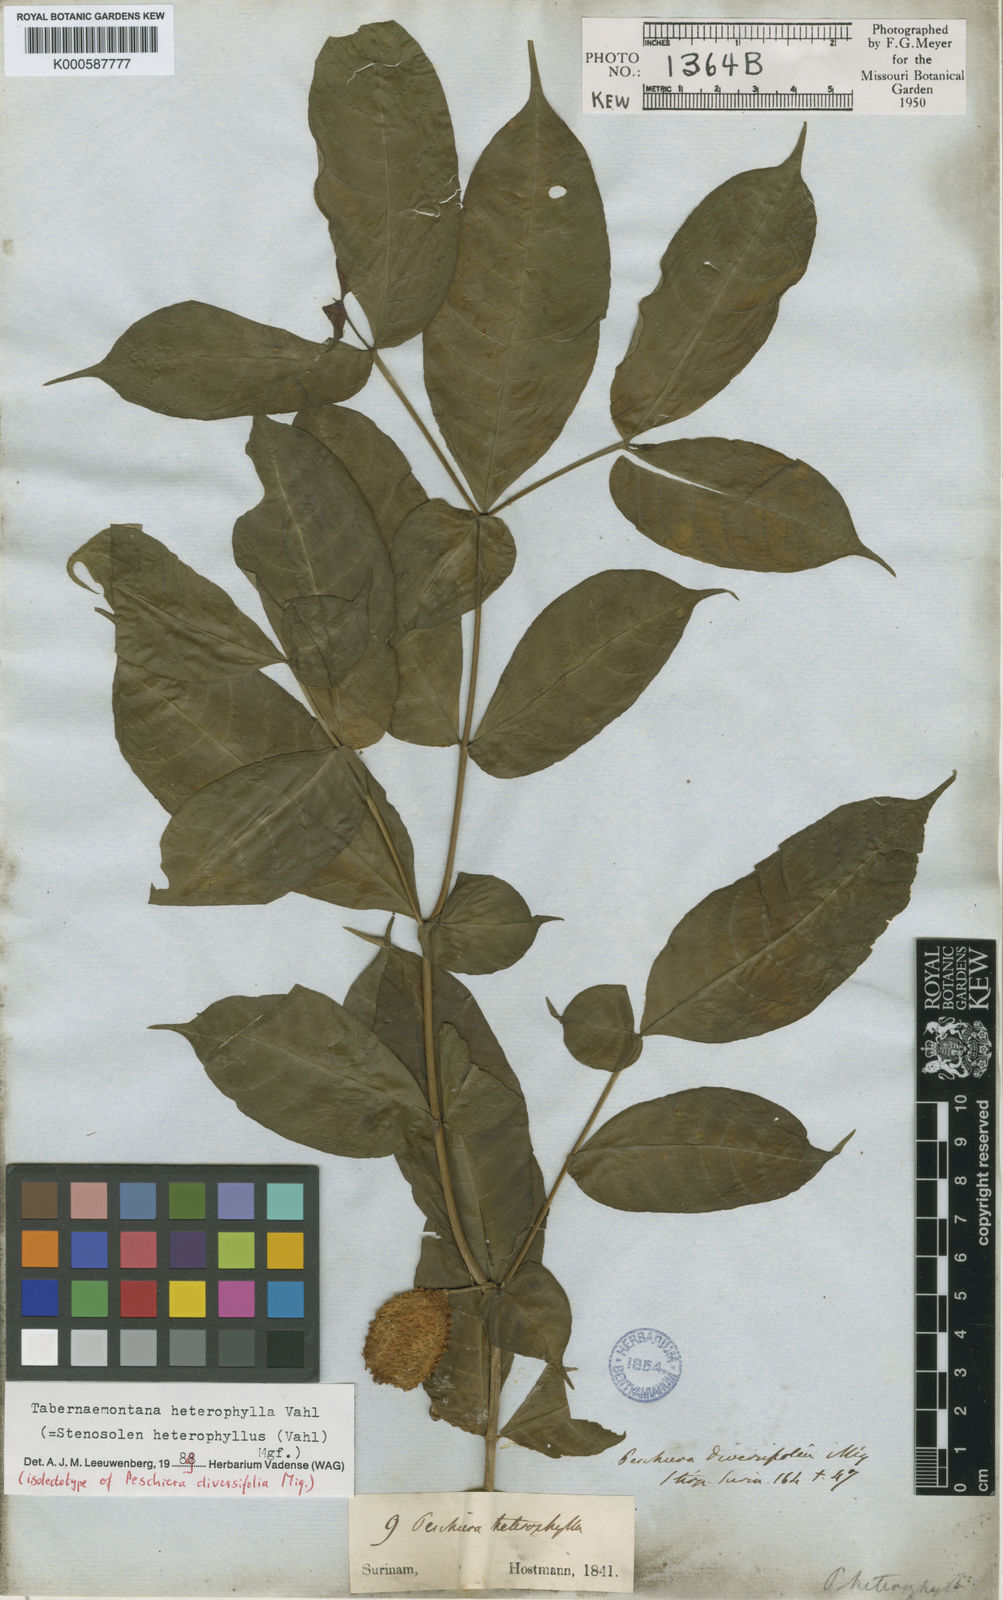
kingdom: Plantae
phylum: Tracheophyta
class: Magnoliopsida
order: Gentianales
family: Apocynaceae
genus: Tabernaemontana
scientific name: Tabernaemontana heterophylla
